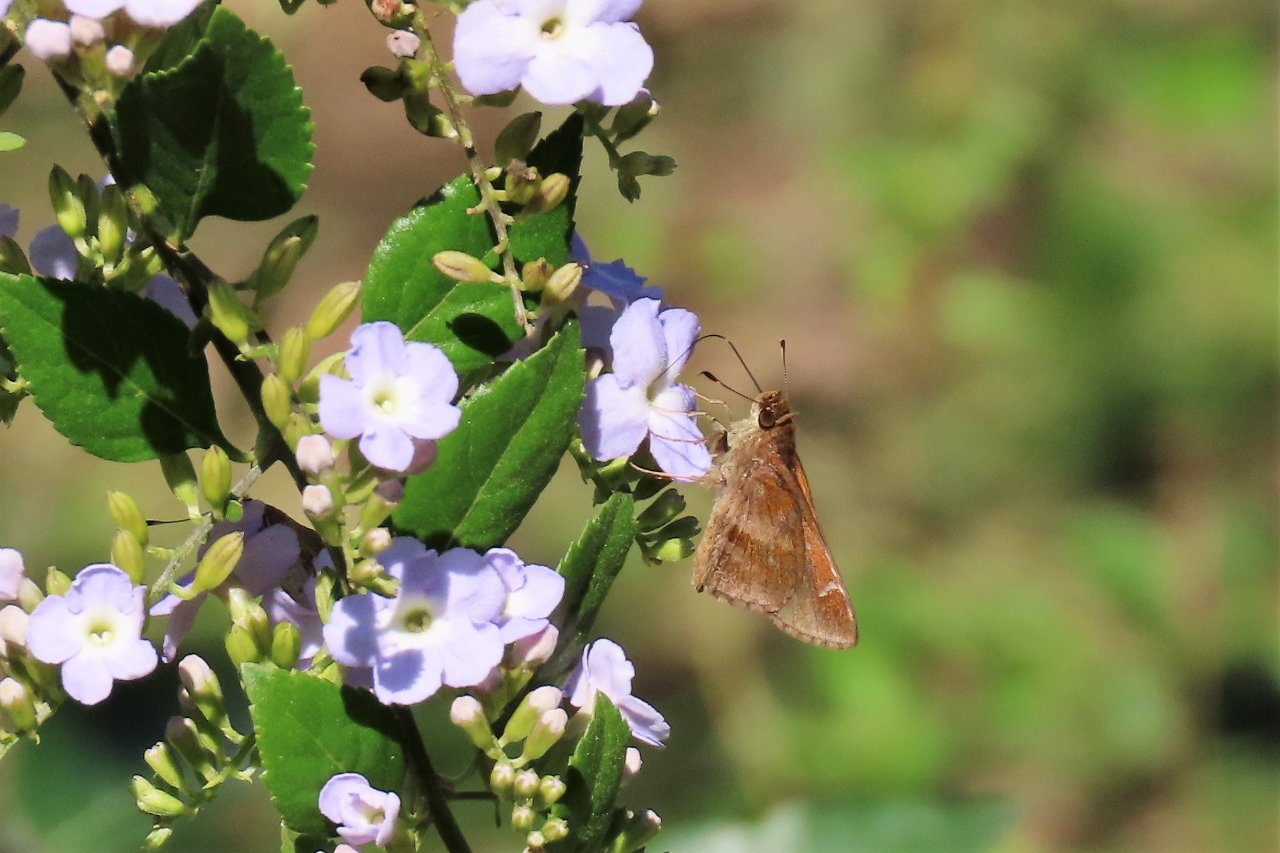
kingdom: Animalia
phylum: Arthropoda
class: Insecta
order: Lepidoptera
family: Hesperiidae
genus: Cymaenes
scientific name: Cymaenes odilia
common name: Fawn-spotted Skipper
